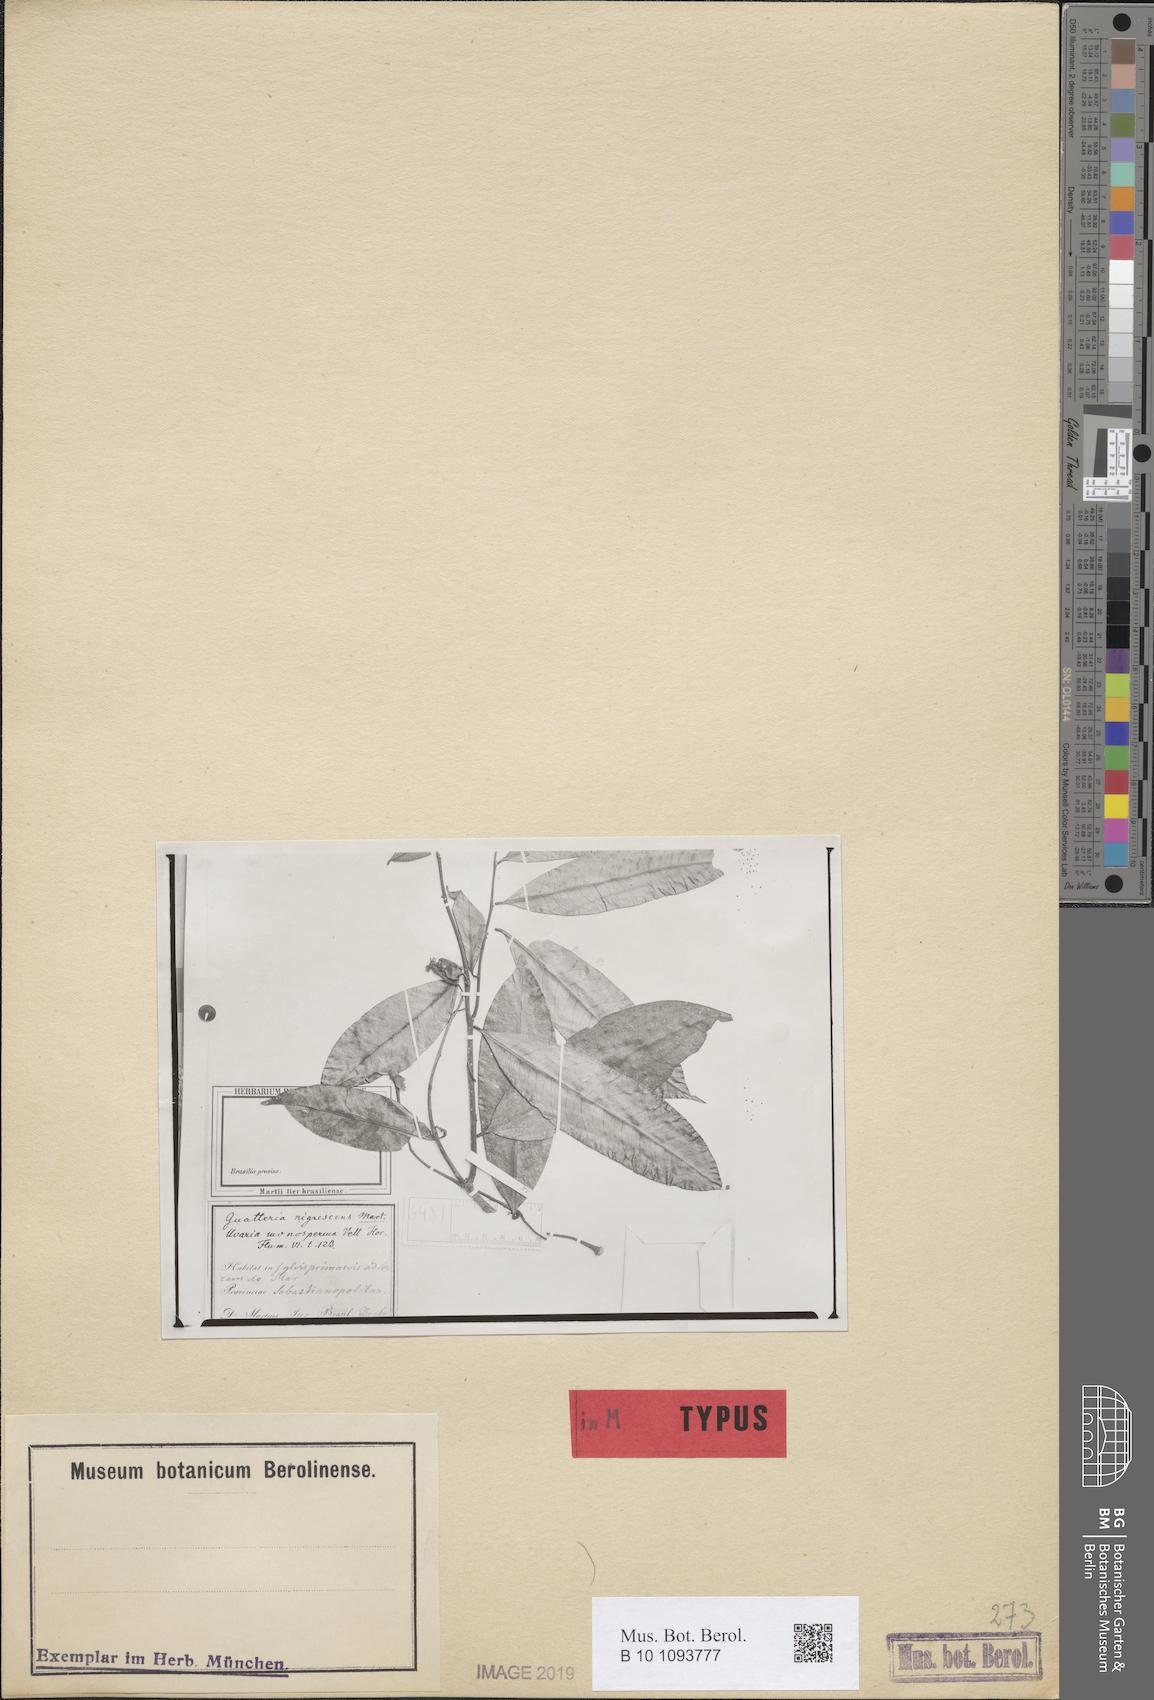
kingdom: Plantae
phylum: Tracheophyta
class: Magnoliopsida
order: Magnoliales
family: Annonaceae
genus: Guatteria
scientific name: Guatteria australis
